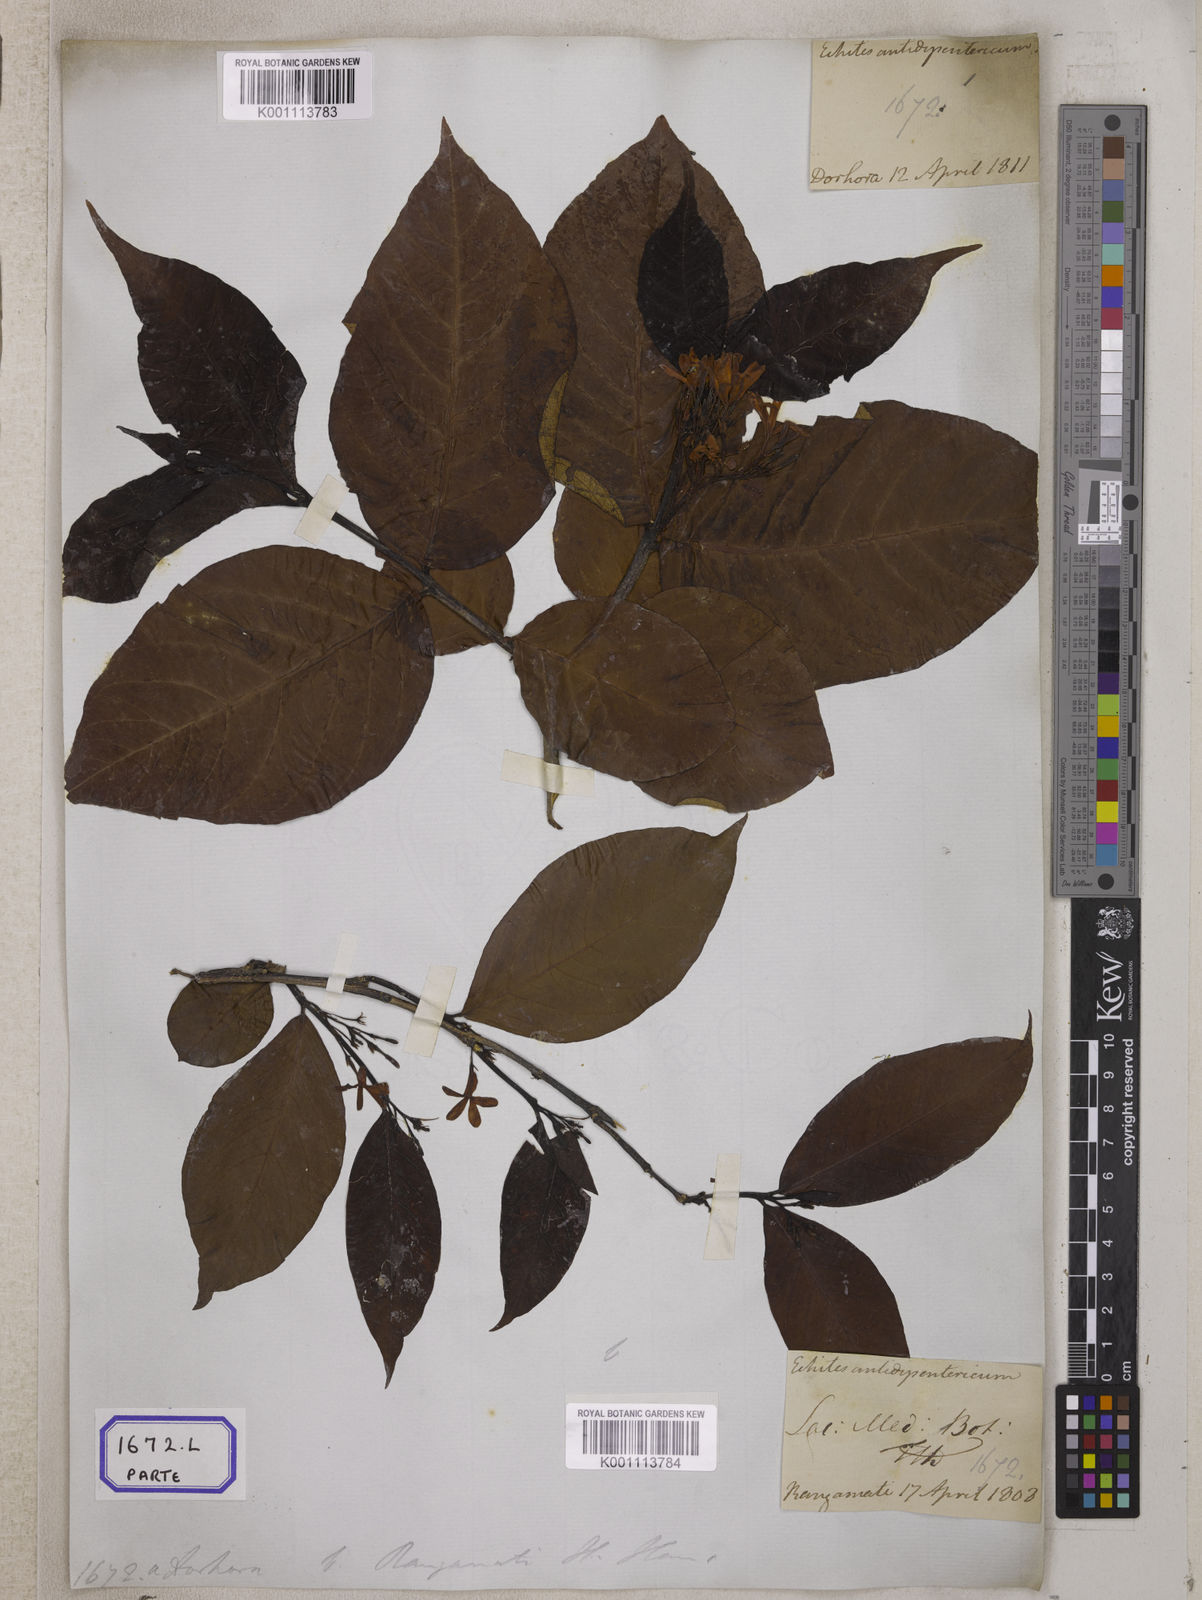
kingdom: Plantae
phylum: Tracheophyta
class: Magnoliopsida
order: Gentianales
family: Apocynaceae
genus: Holarrhena
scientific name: Holarrhena pubescens
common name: Bitter oleander
